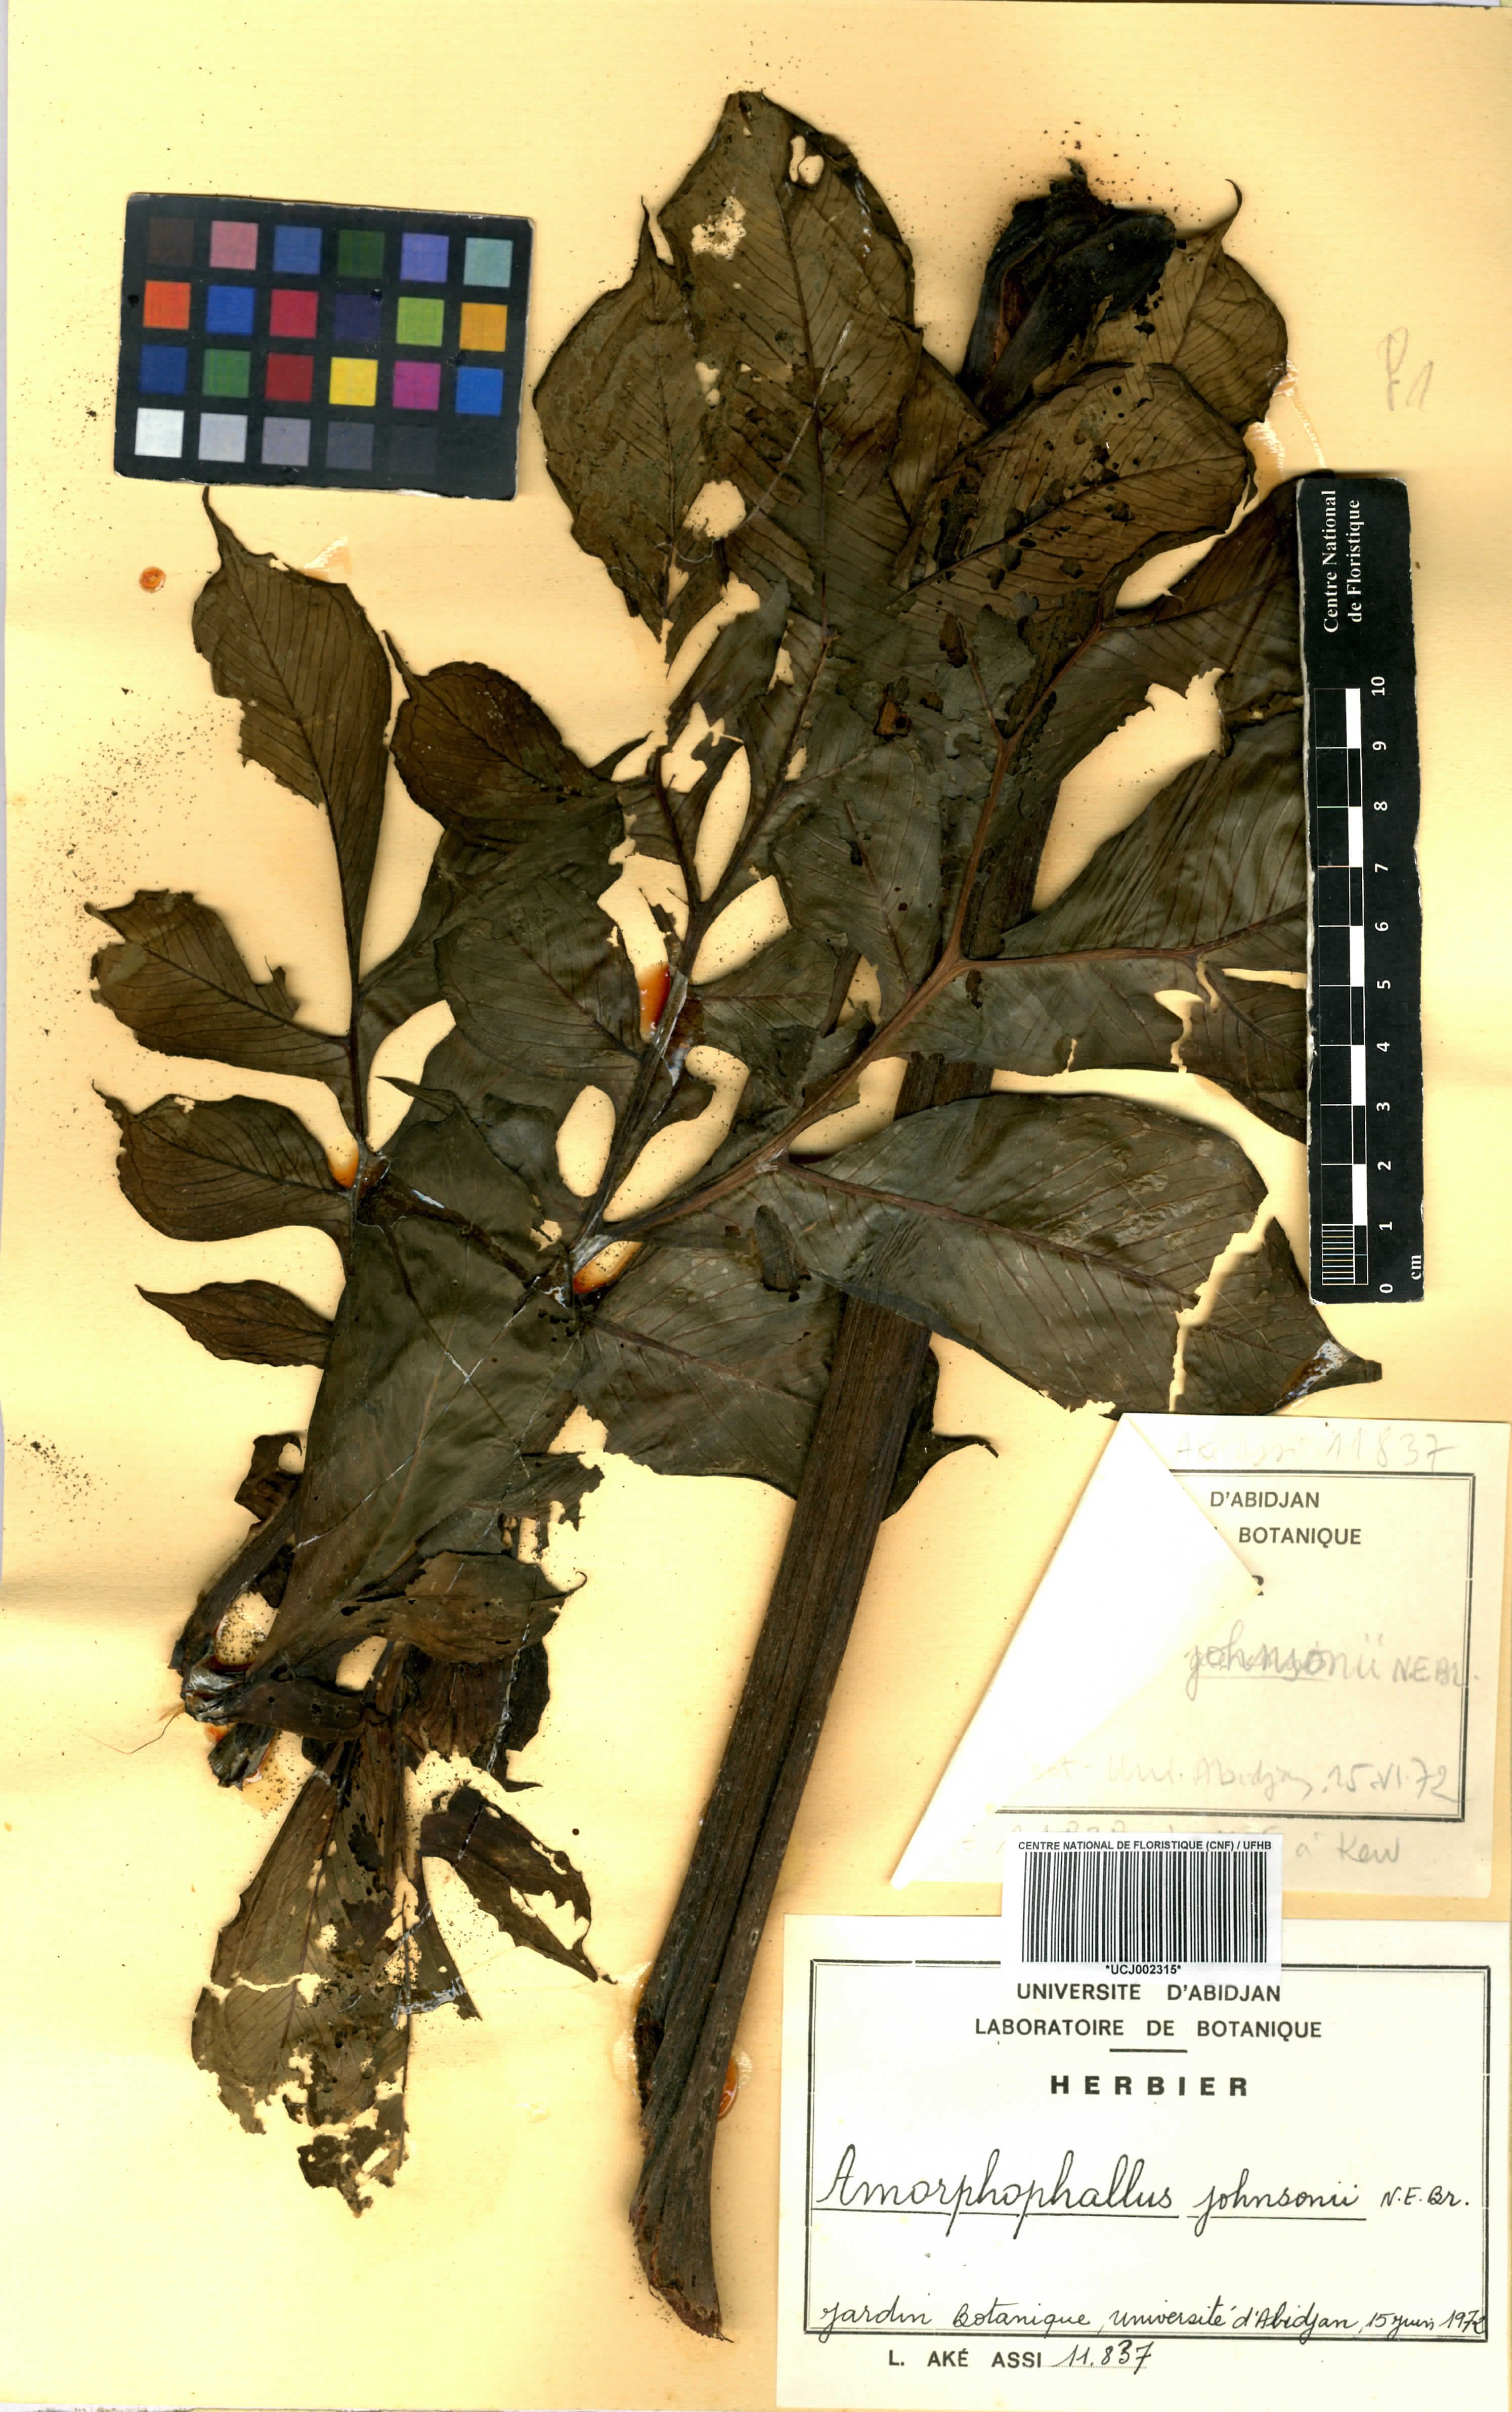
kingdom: Plantae
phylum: Tracheophyta
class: Liliopsida
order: Alismatales
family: Araceae
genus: Amorphophallus
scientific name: Amorphophallus johnsonii
